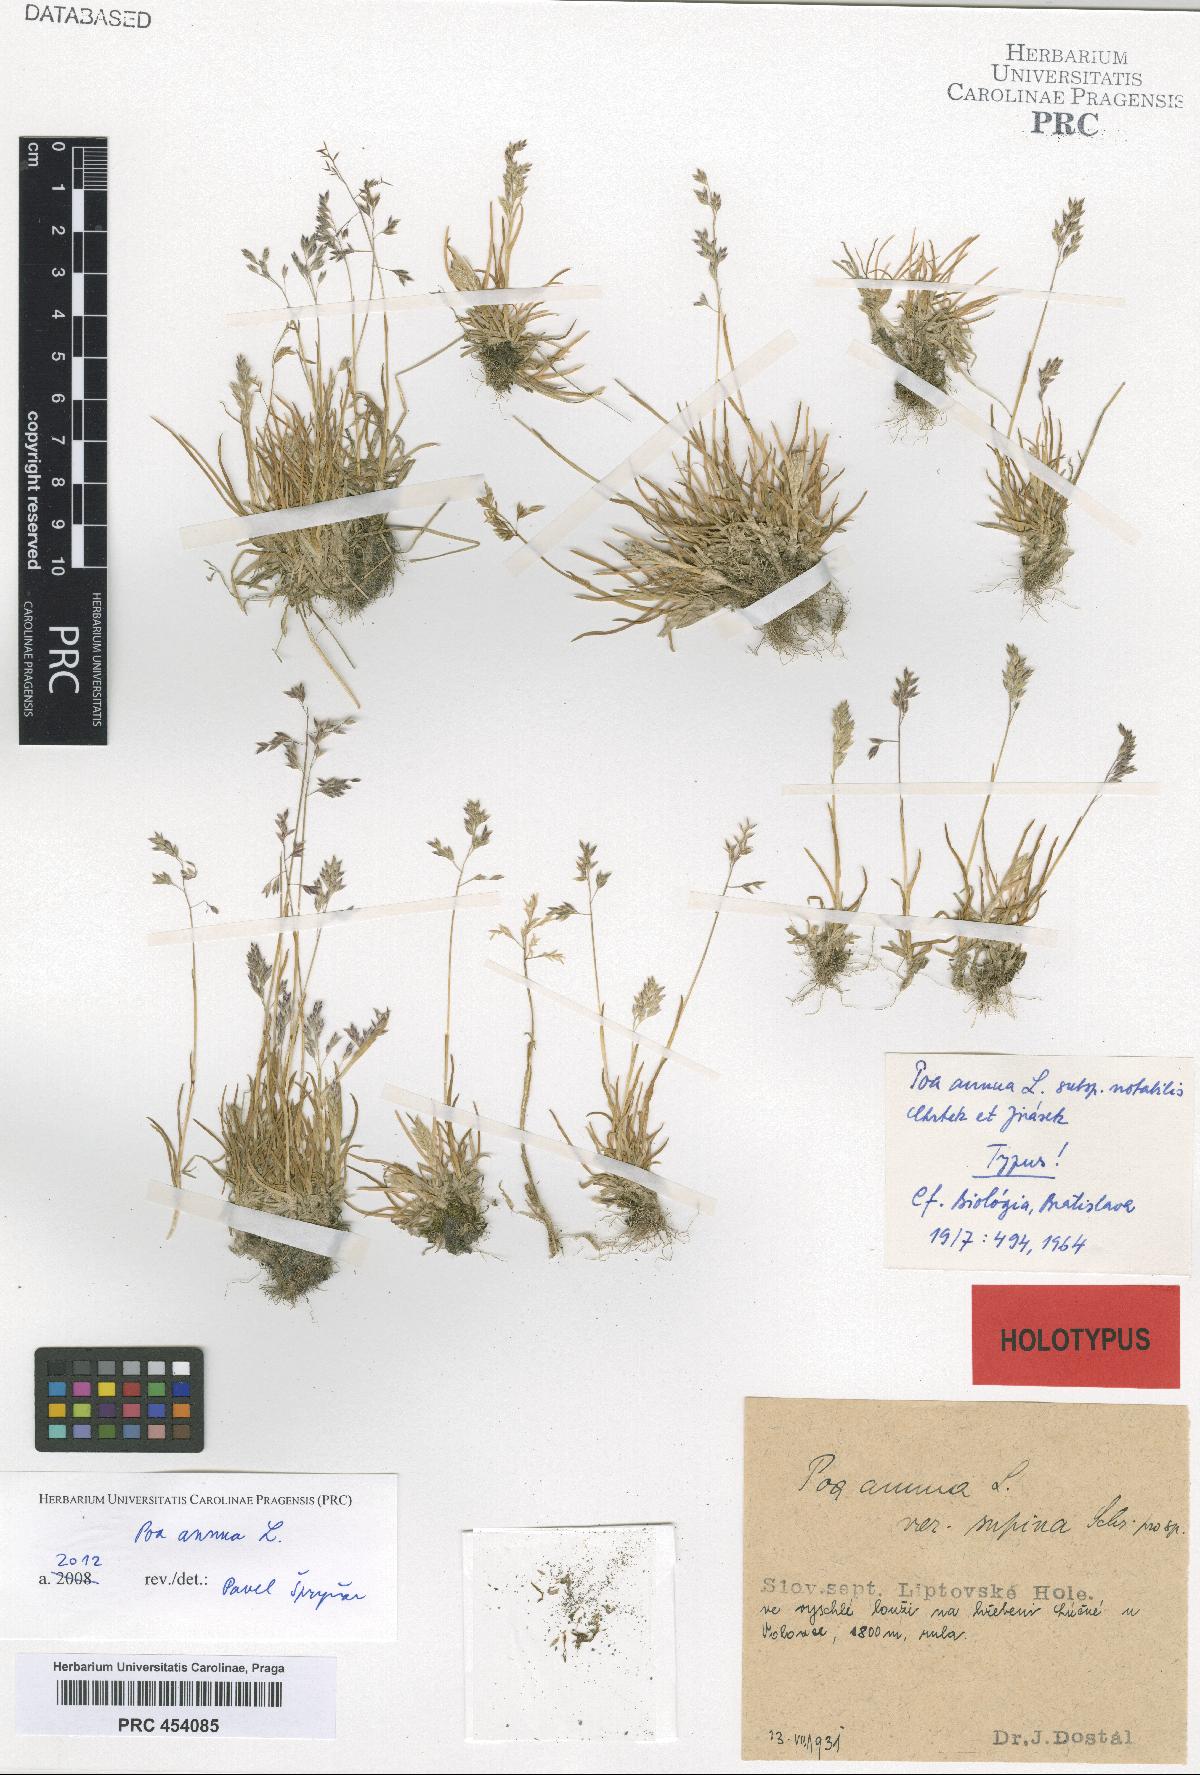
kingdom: Plantae
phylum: Tracheophyta
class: Liliopsida
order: Poales
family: Poaceae
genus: Poa
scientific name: Poa annua
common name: Annual bluegrass
